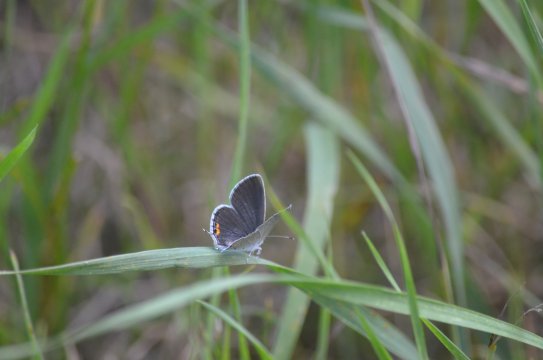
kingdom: Animalia
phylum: Arthropoda
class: Insecta
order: Lepidoptera
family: Lycaenidae
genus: Elkalyce
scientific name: Elkalyce comyntas
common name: Eastern Tailed-Blue
